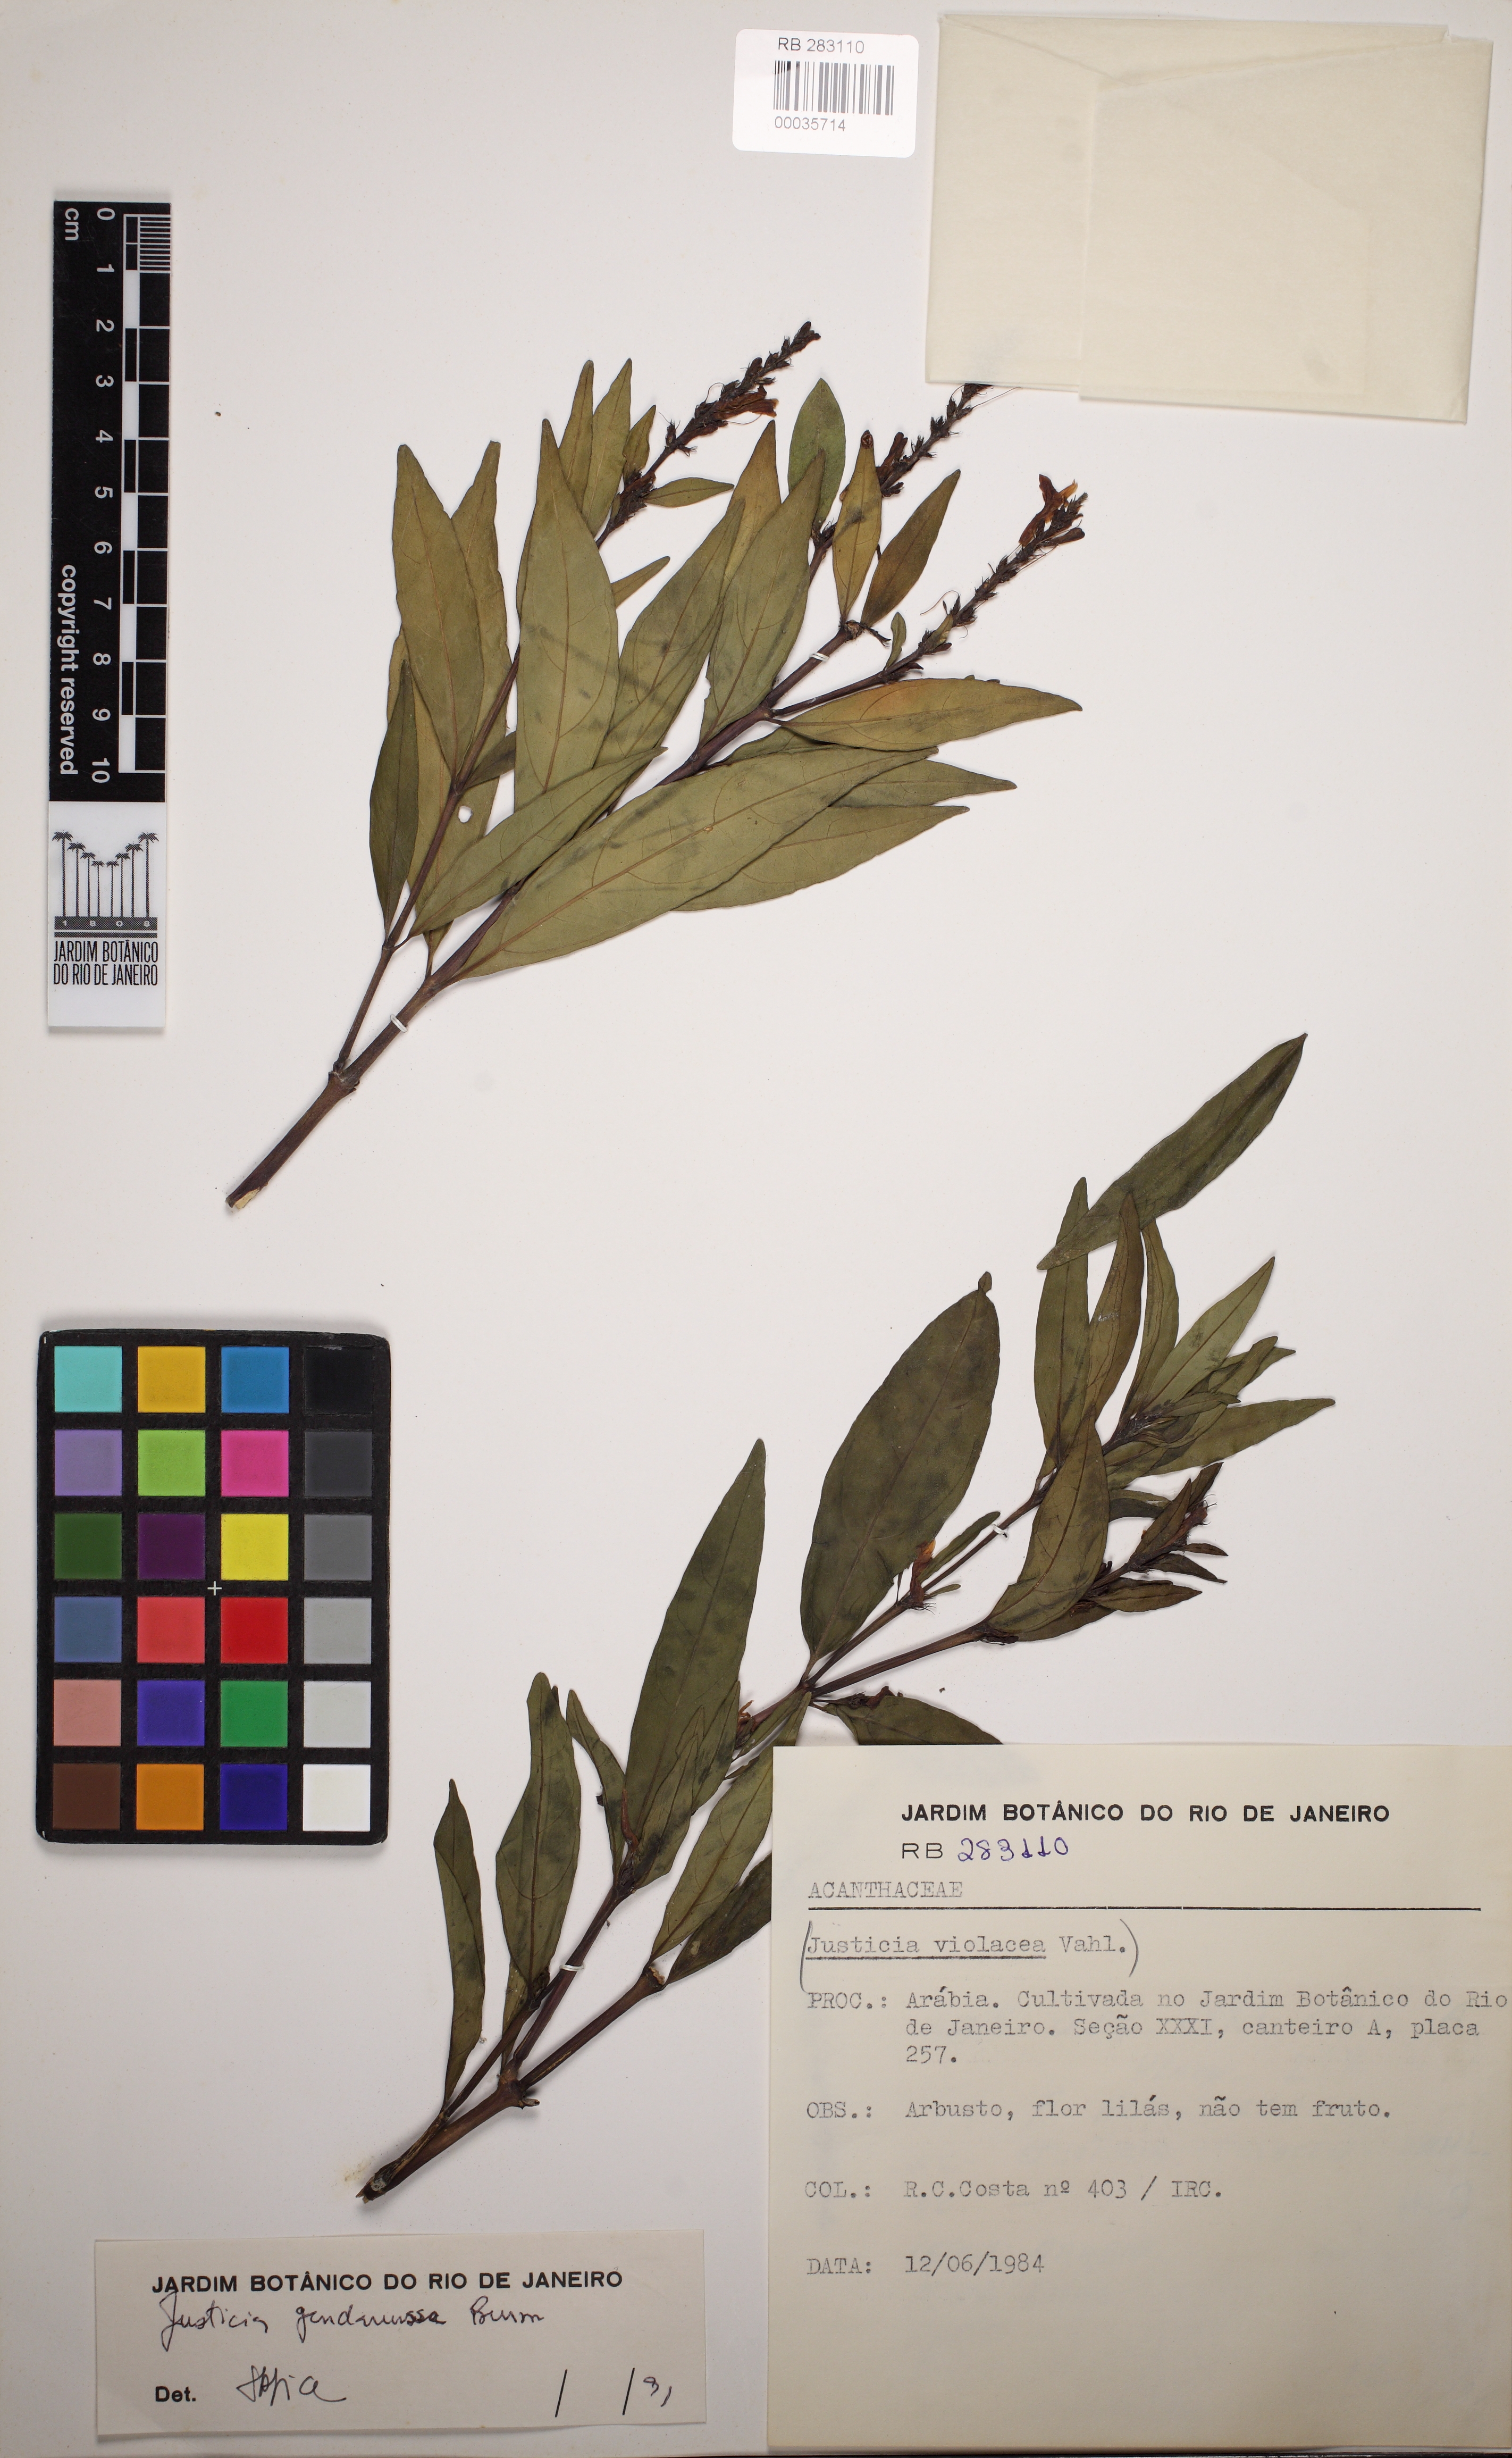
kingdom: Plantae
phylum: Tracheophyta
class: Magnoliopsida
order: Lamiales
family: Acanthaceae
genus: Justicia
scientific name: Justicia gendarussa
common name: Warer willow
